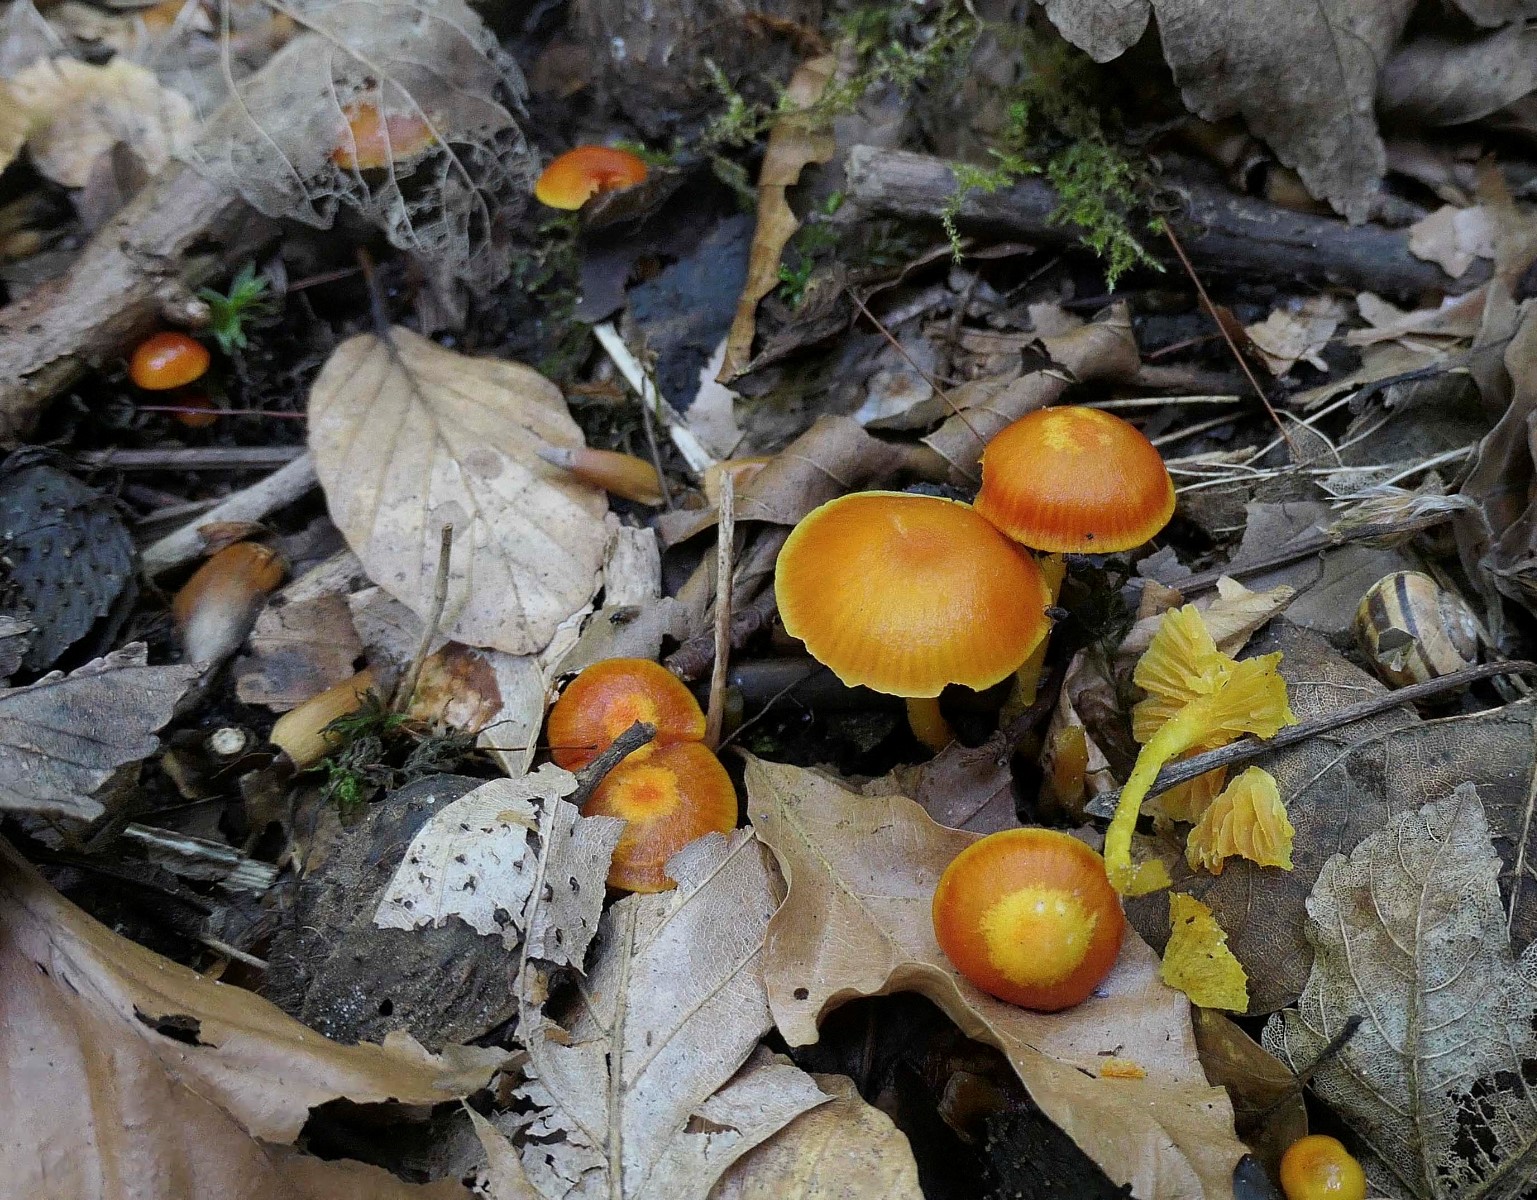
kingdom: Fungi
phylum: Basidiomycota
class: Agaricomycetes
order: Agaricales
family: Hygrophoraceae
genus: Hygrocybe
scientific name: Hygrocybe insipida
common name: liden vokshat
